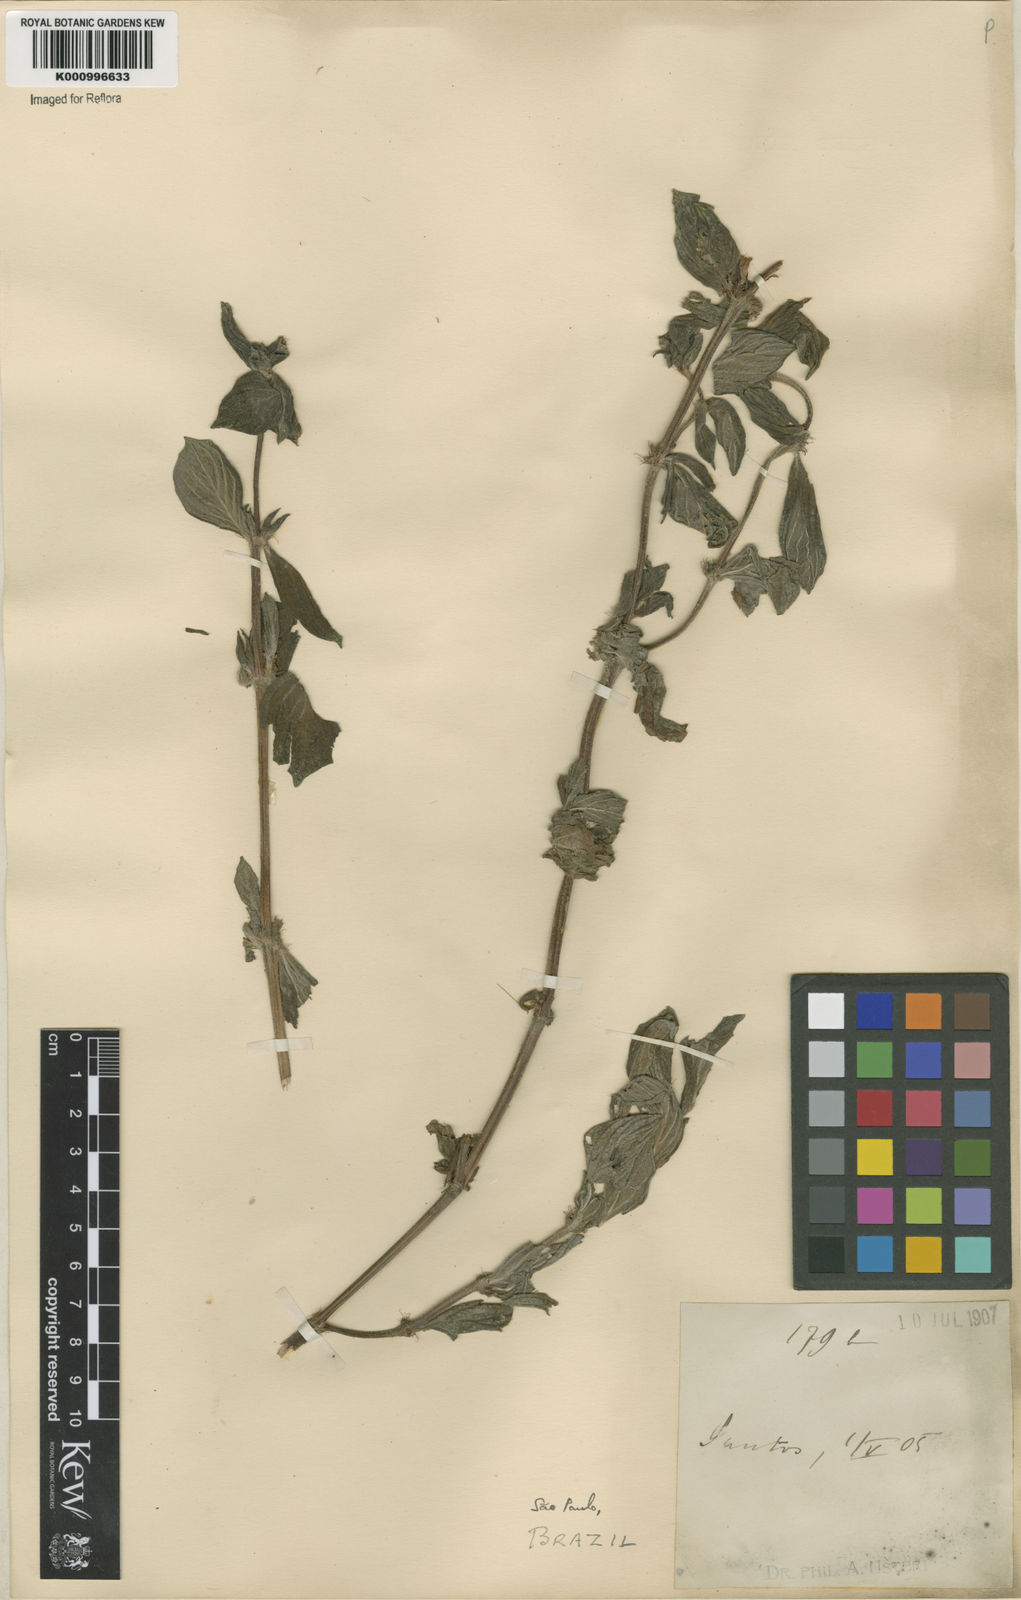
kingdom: Plantae
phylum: Tracheophyta
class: Magnoliopsida
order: Gentianales
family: Rubiaceae
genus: Spermacoce
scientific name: Spermacoce
